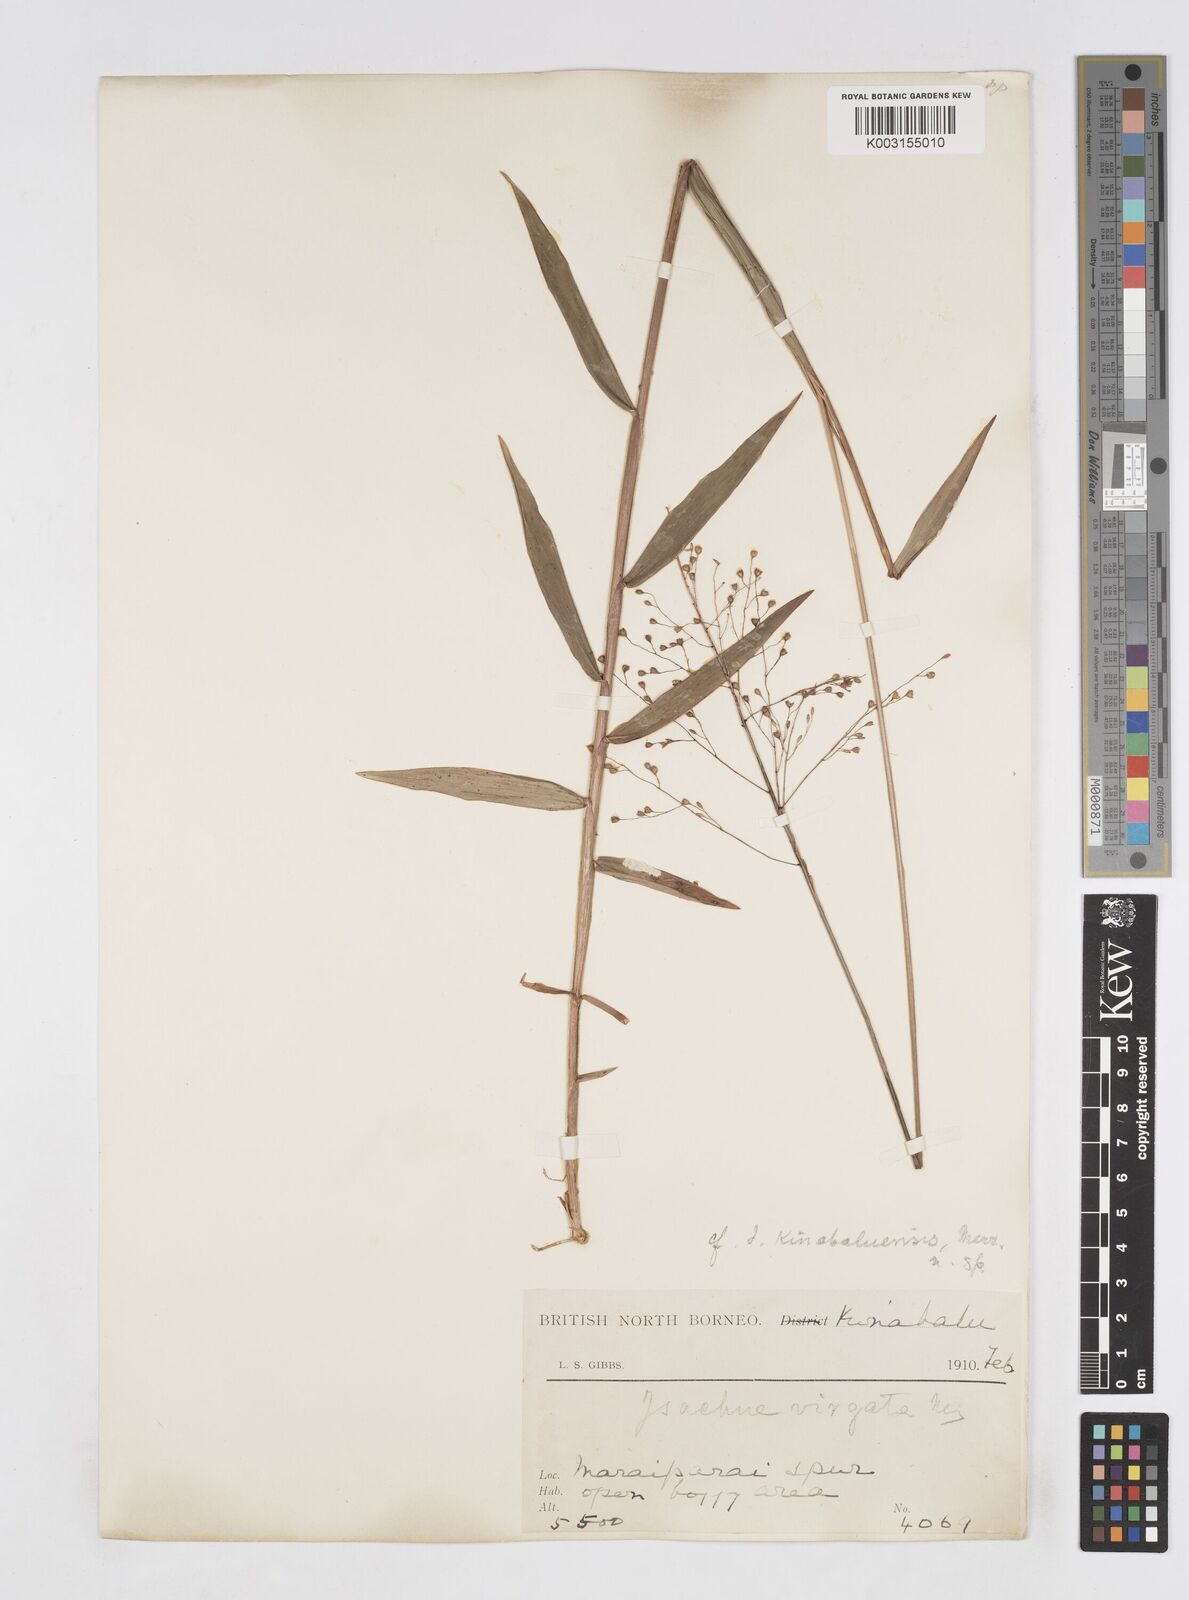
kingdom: Plantae
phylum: Tracheophyta
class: Liliopsida
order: Poales
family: Poaceae
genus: Isachne
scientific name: Isachne kinabaluensis
